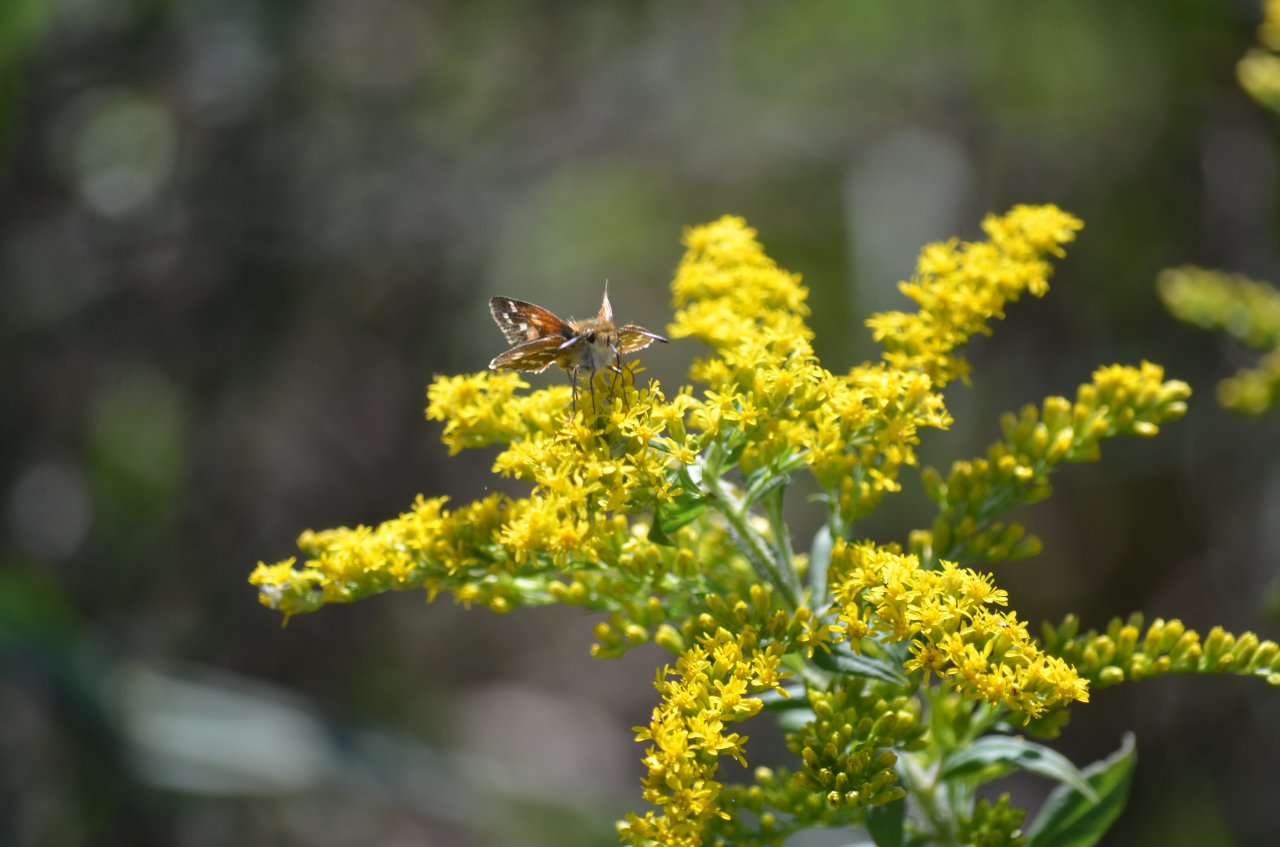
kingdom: Animalia
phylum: Arthropoda
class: Insecta
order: Lepidoptera
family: Hesperiidae
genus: Hesperia
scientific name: Hesperia comma
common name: Common Branded Skipper
